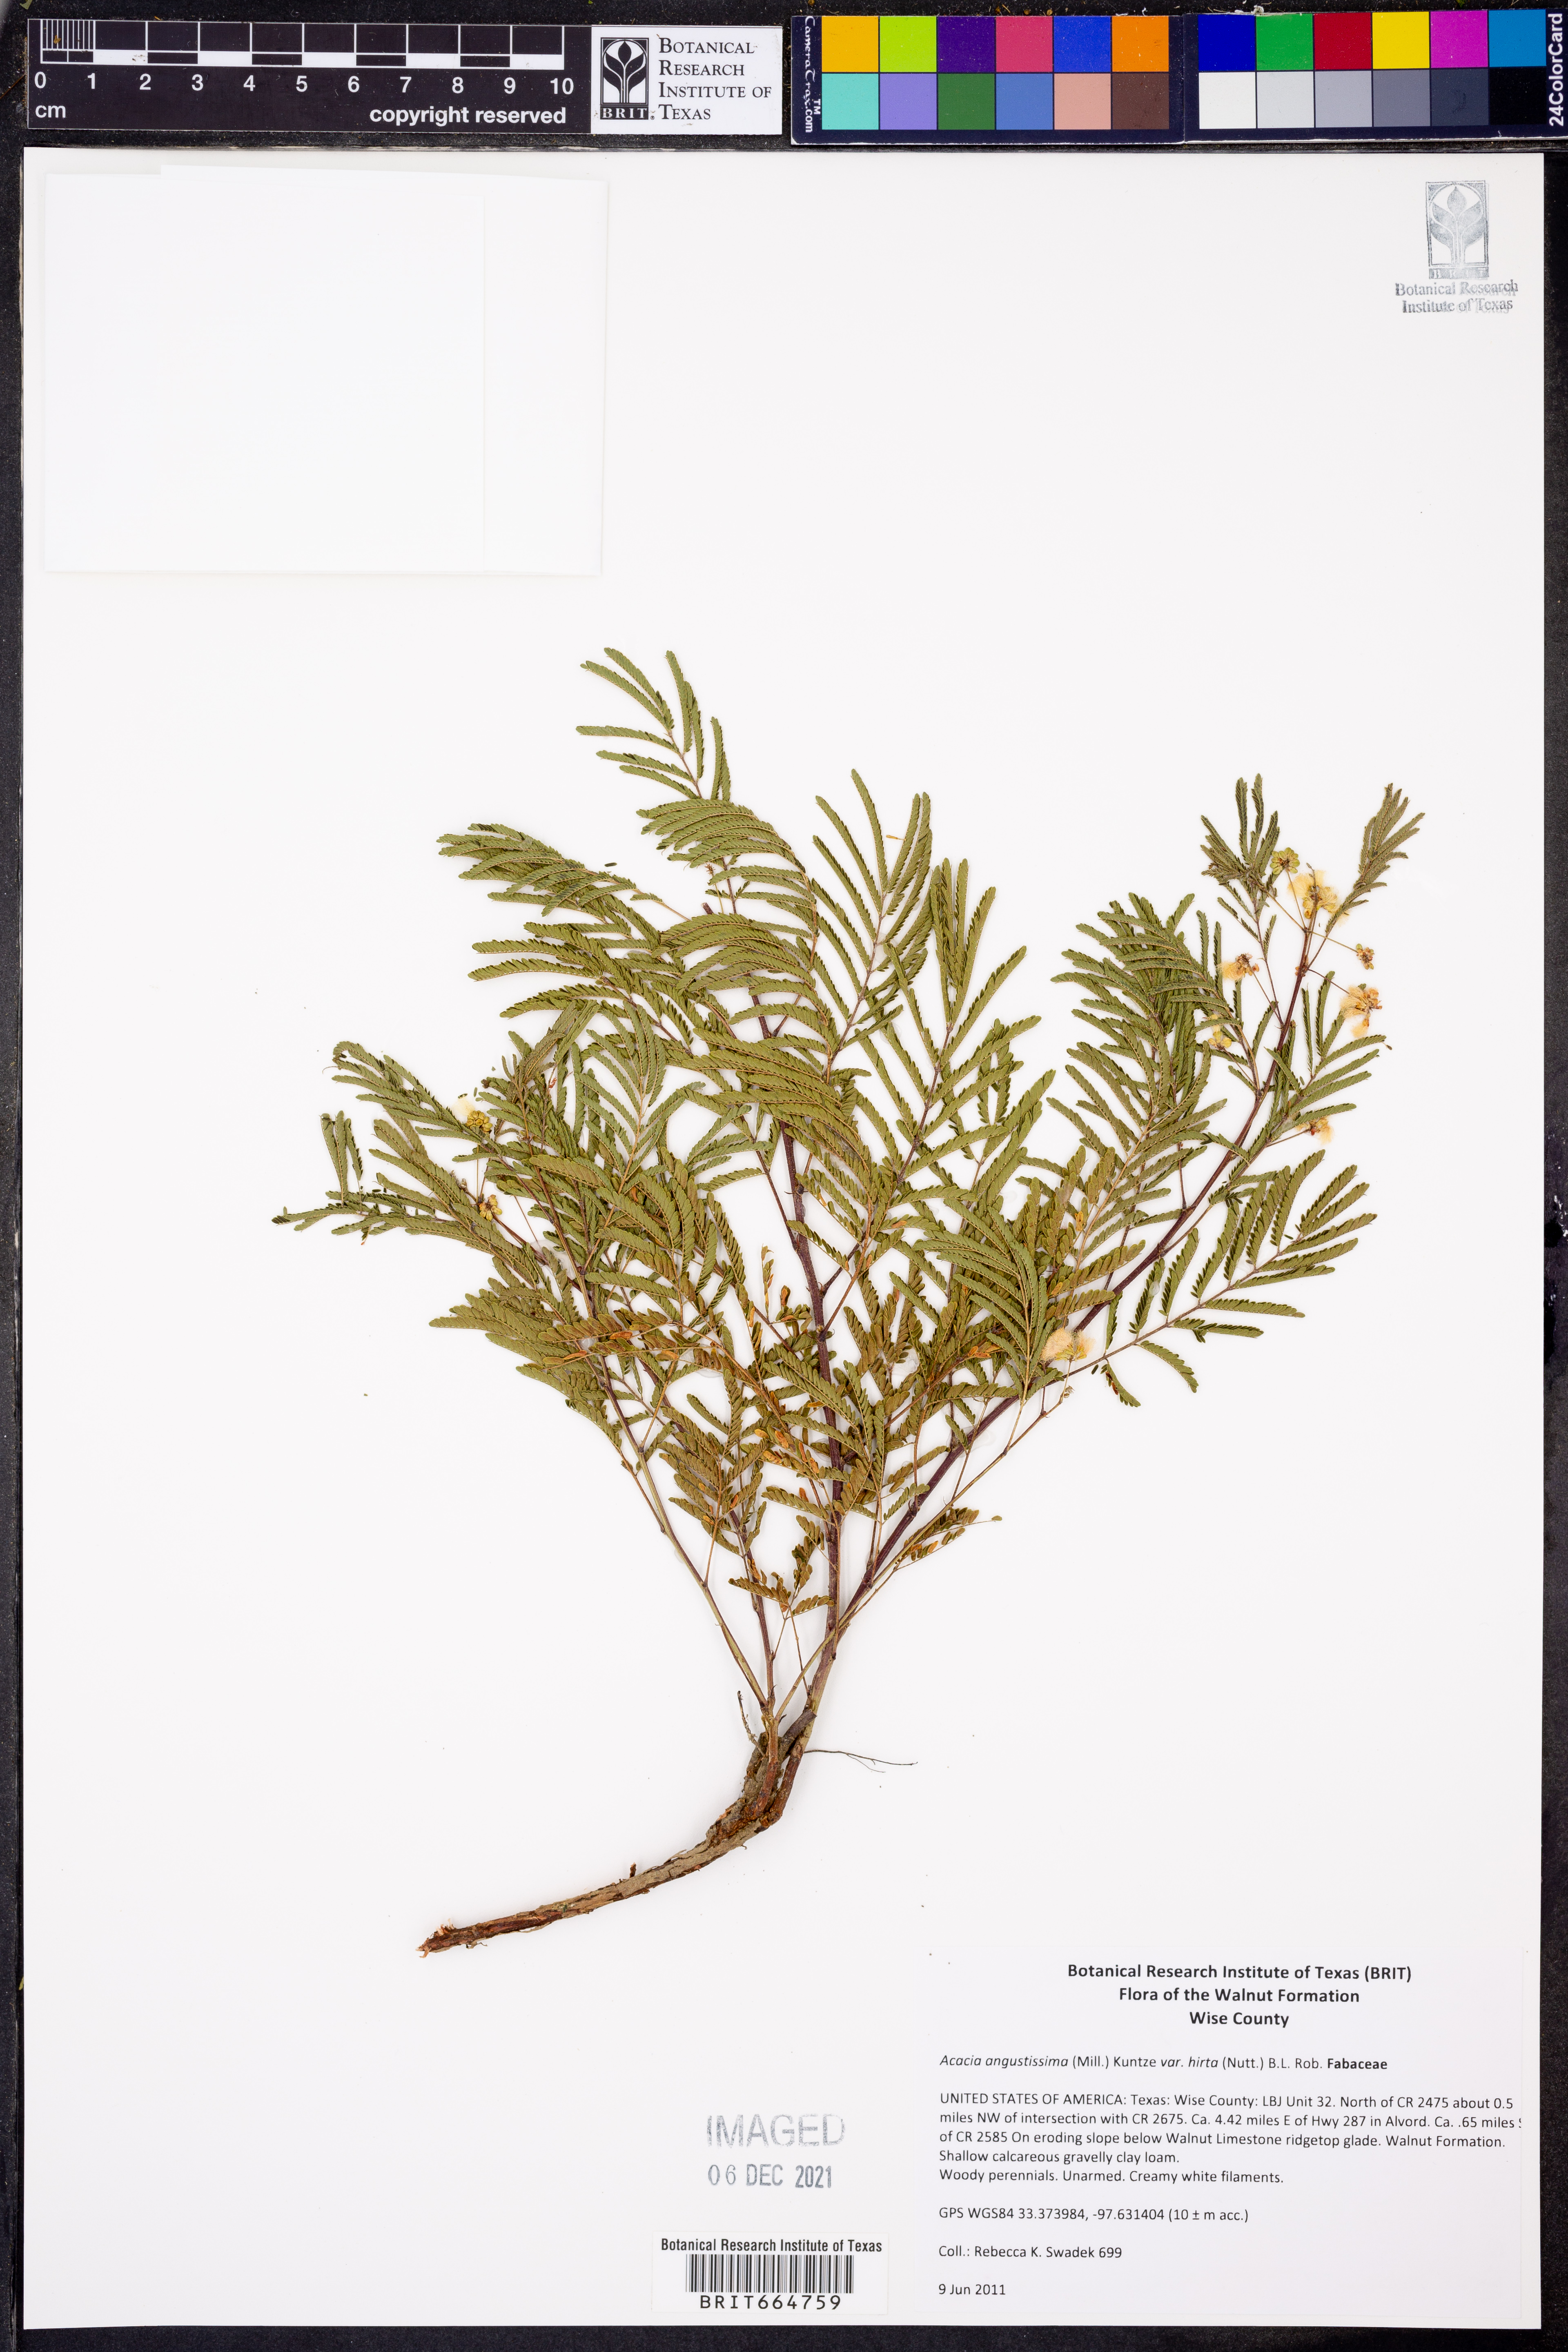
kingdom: Plantae
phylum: Tracheophyta
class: Magnoliopsida
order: Fabales
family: Fabaceae
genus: Acaciella
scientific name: Acaciella angustissima
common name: Prairie acacia
